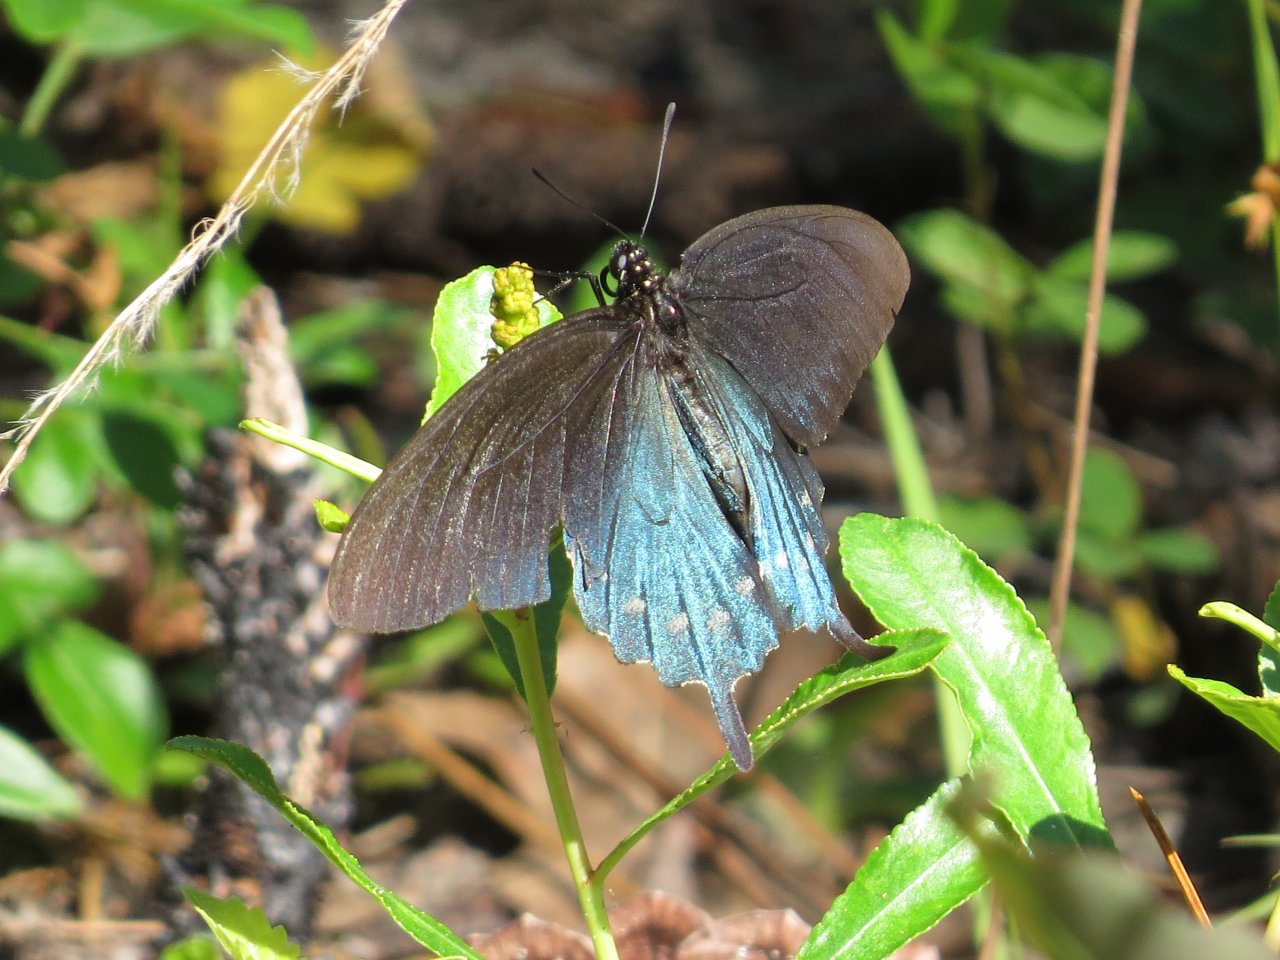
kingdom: Animalia
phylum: Arthropoda
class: Insecta
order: Lepidoptera
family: Papilionidae
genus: Battus
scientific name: Battus philenor
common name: Pipevine Swallowtail
